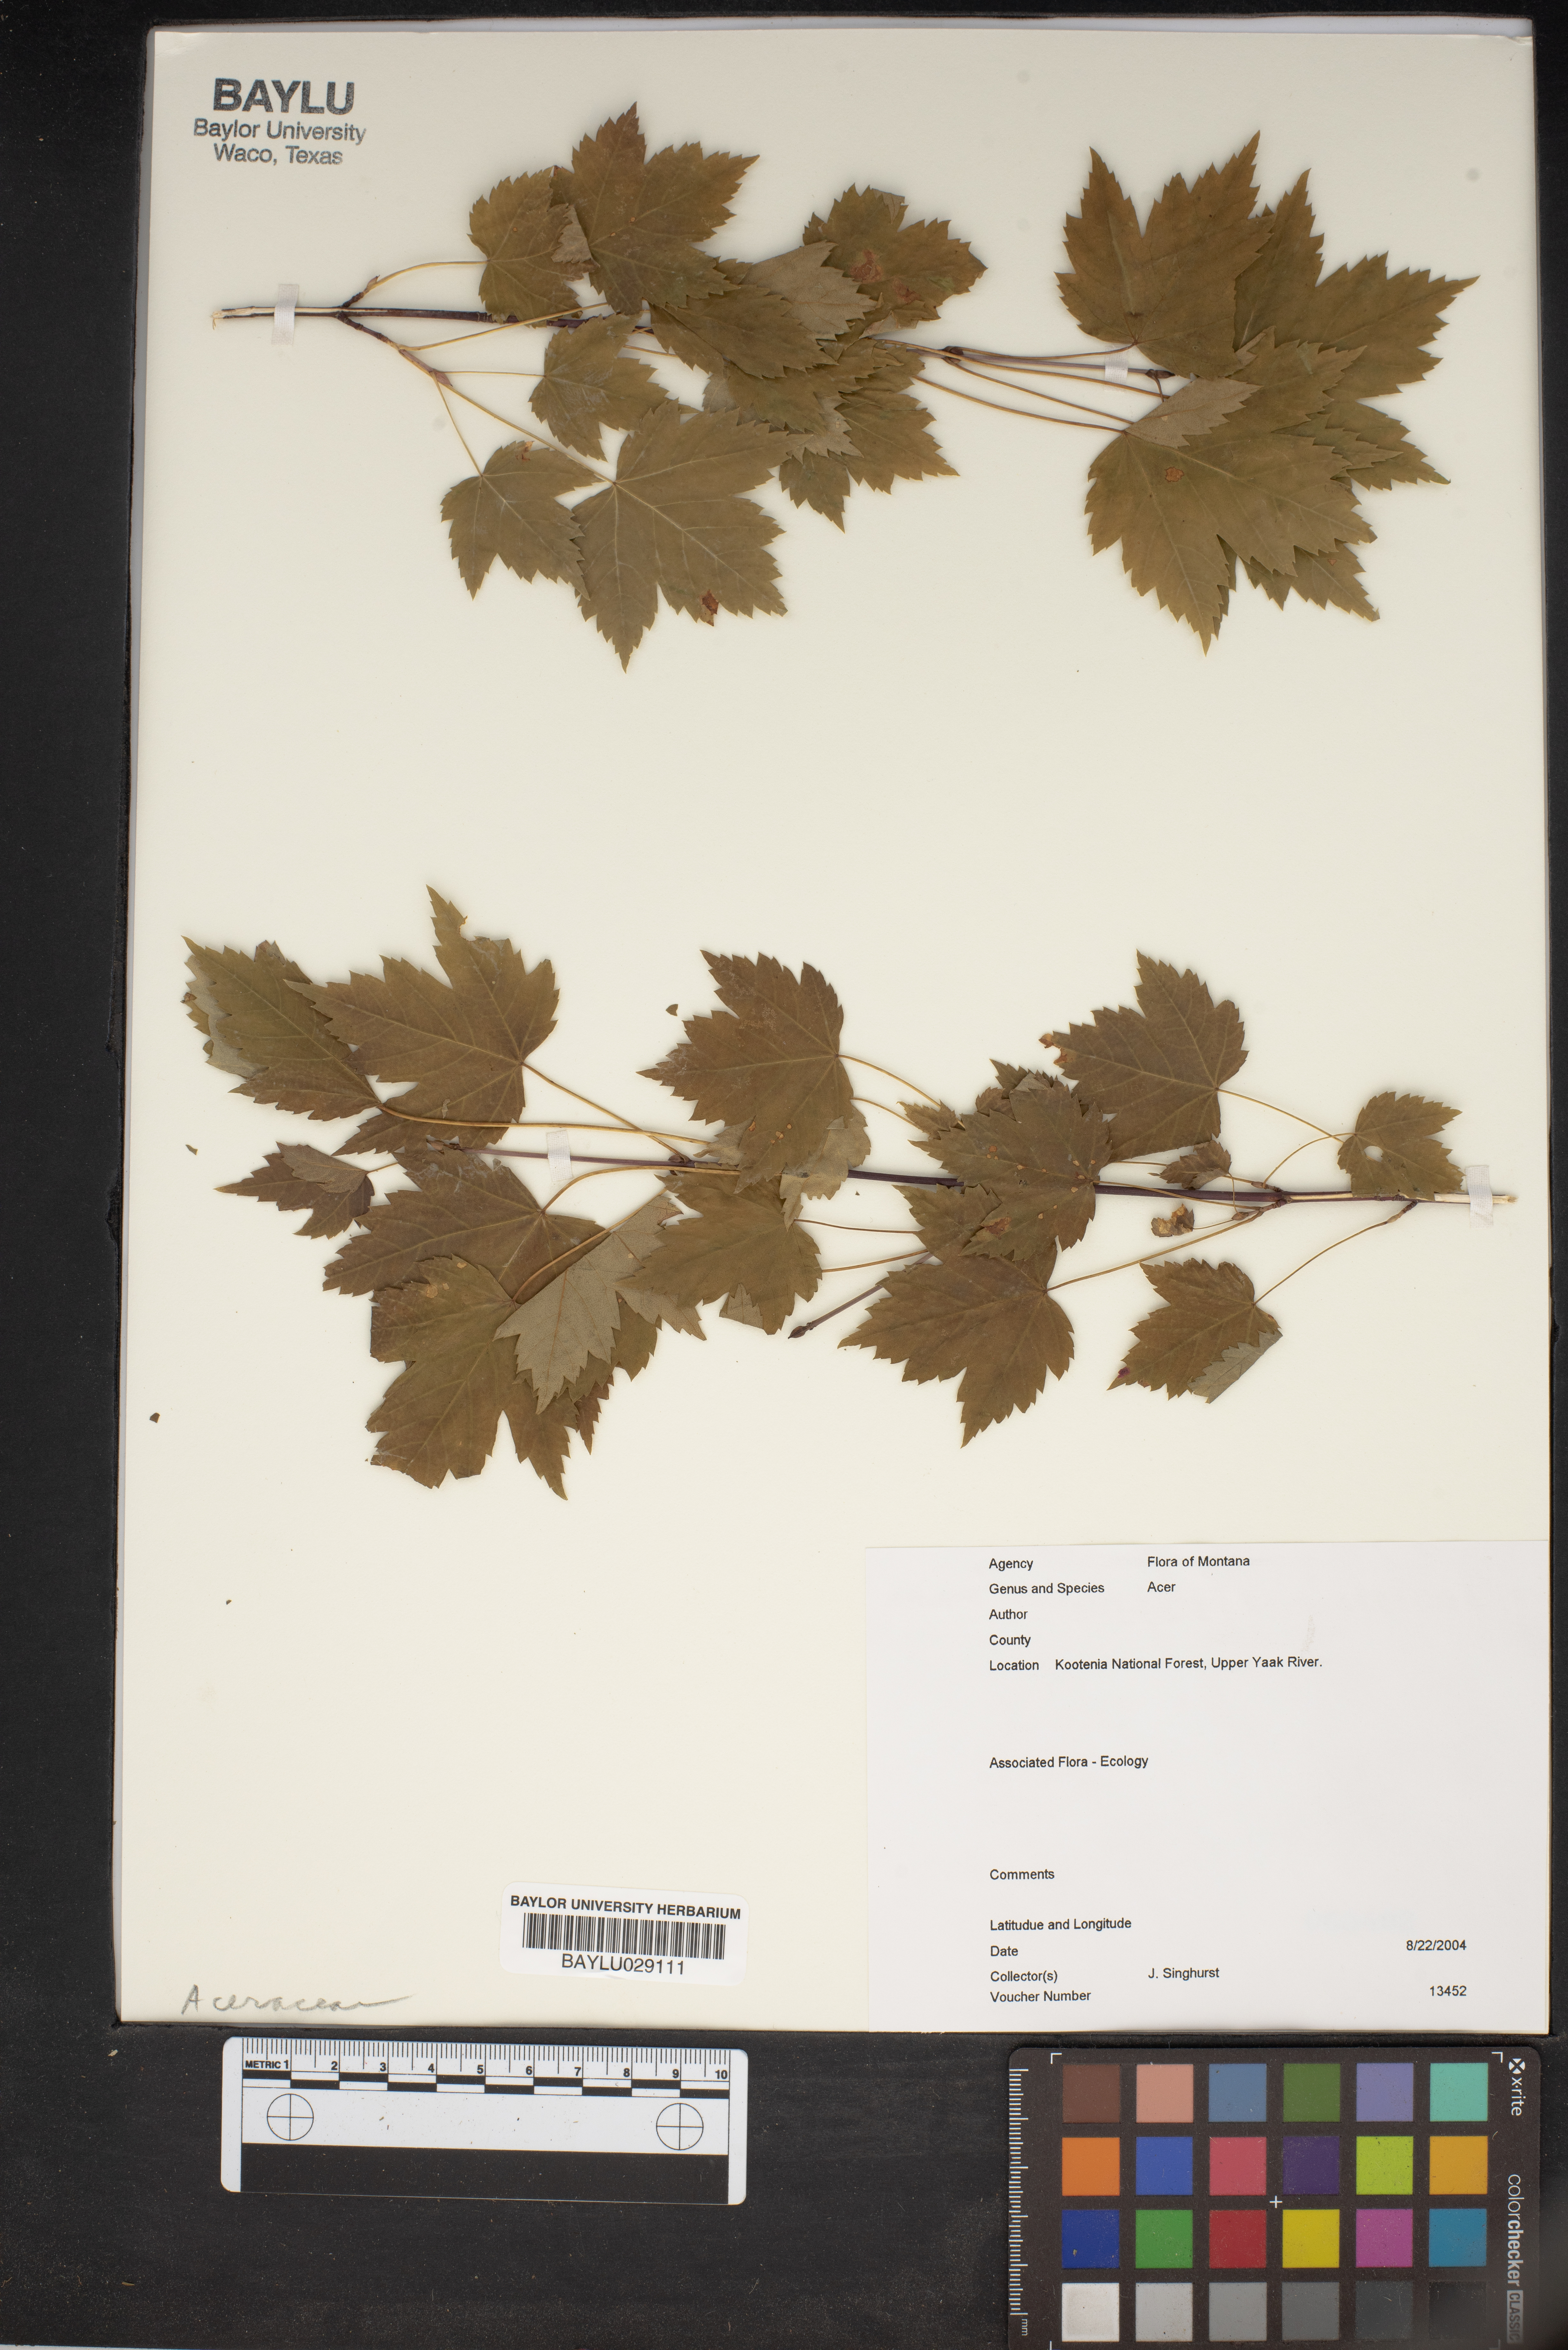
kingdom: Plantae
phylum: Tracheophyta
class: Magnoliopsida
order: Sapindales
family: Sapindaceae
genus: Acer
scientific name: Acer
